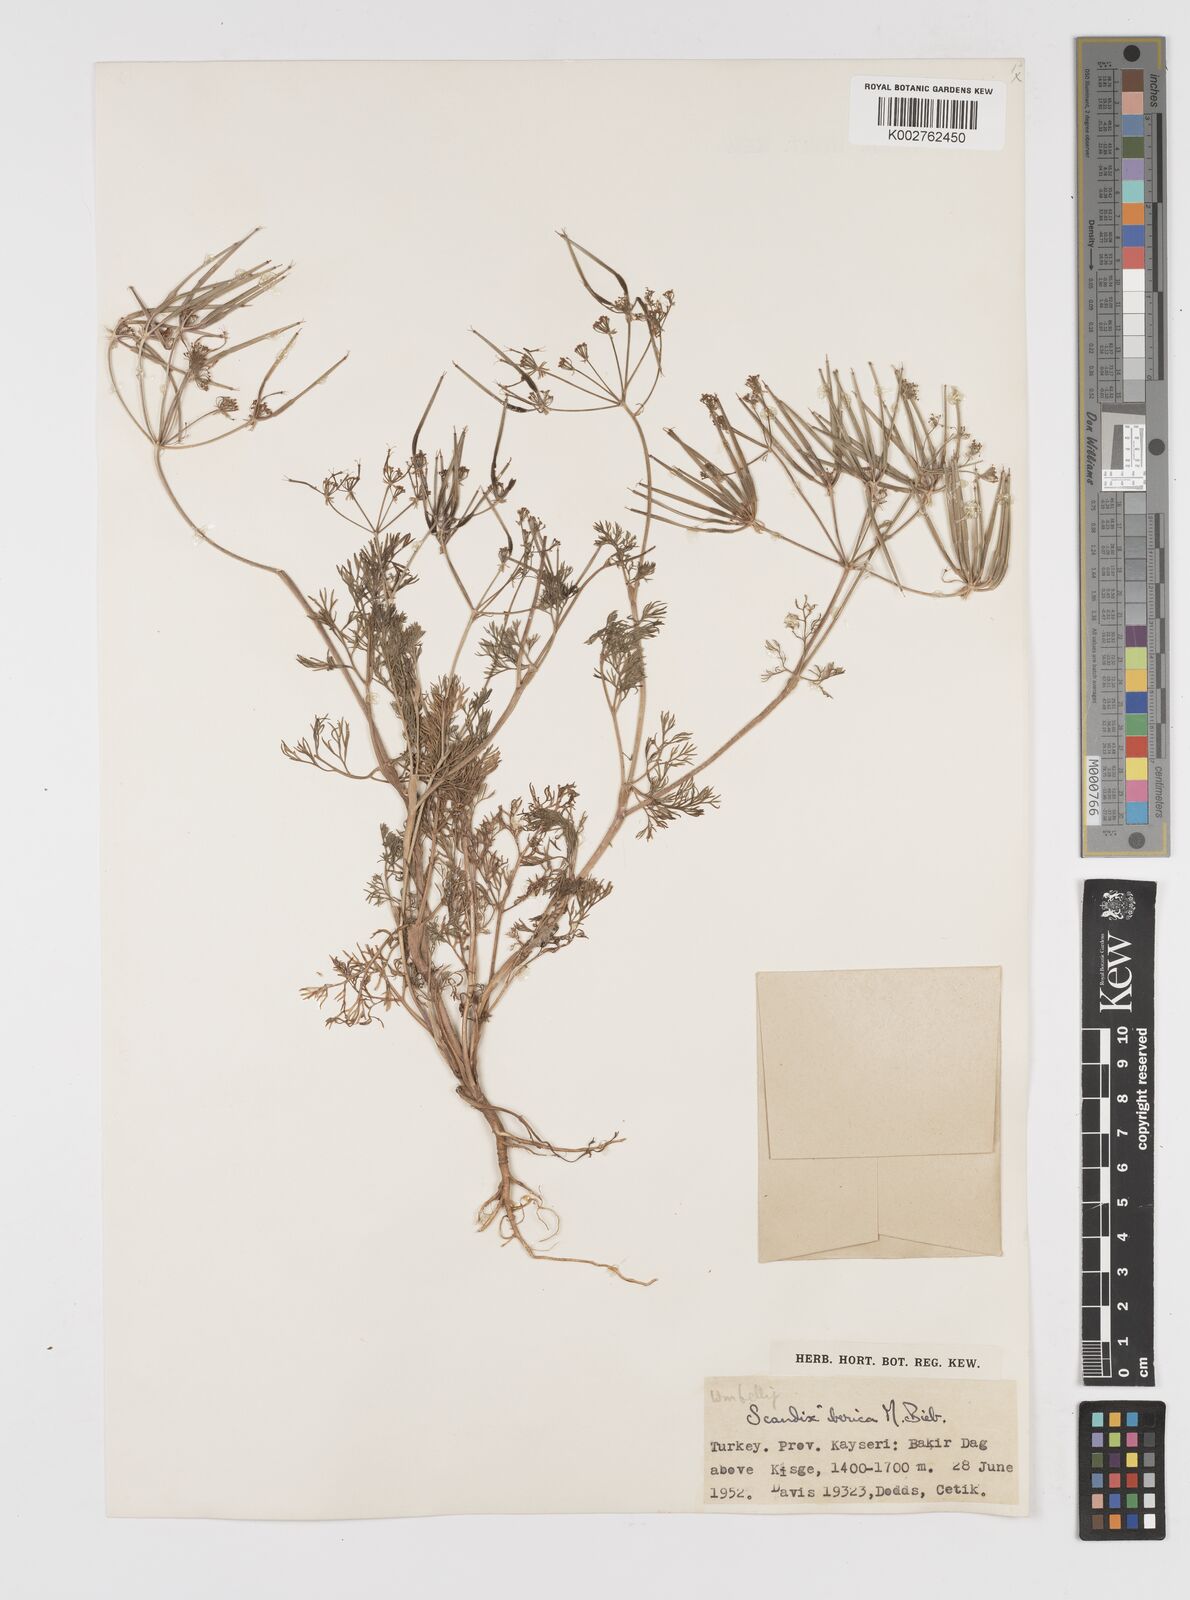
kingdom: Plantae
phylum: Tracheophyta
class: Magnoliopsida
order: Apiales
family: Apiaceae
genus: Scandix
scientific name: Scandix iberica
